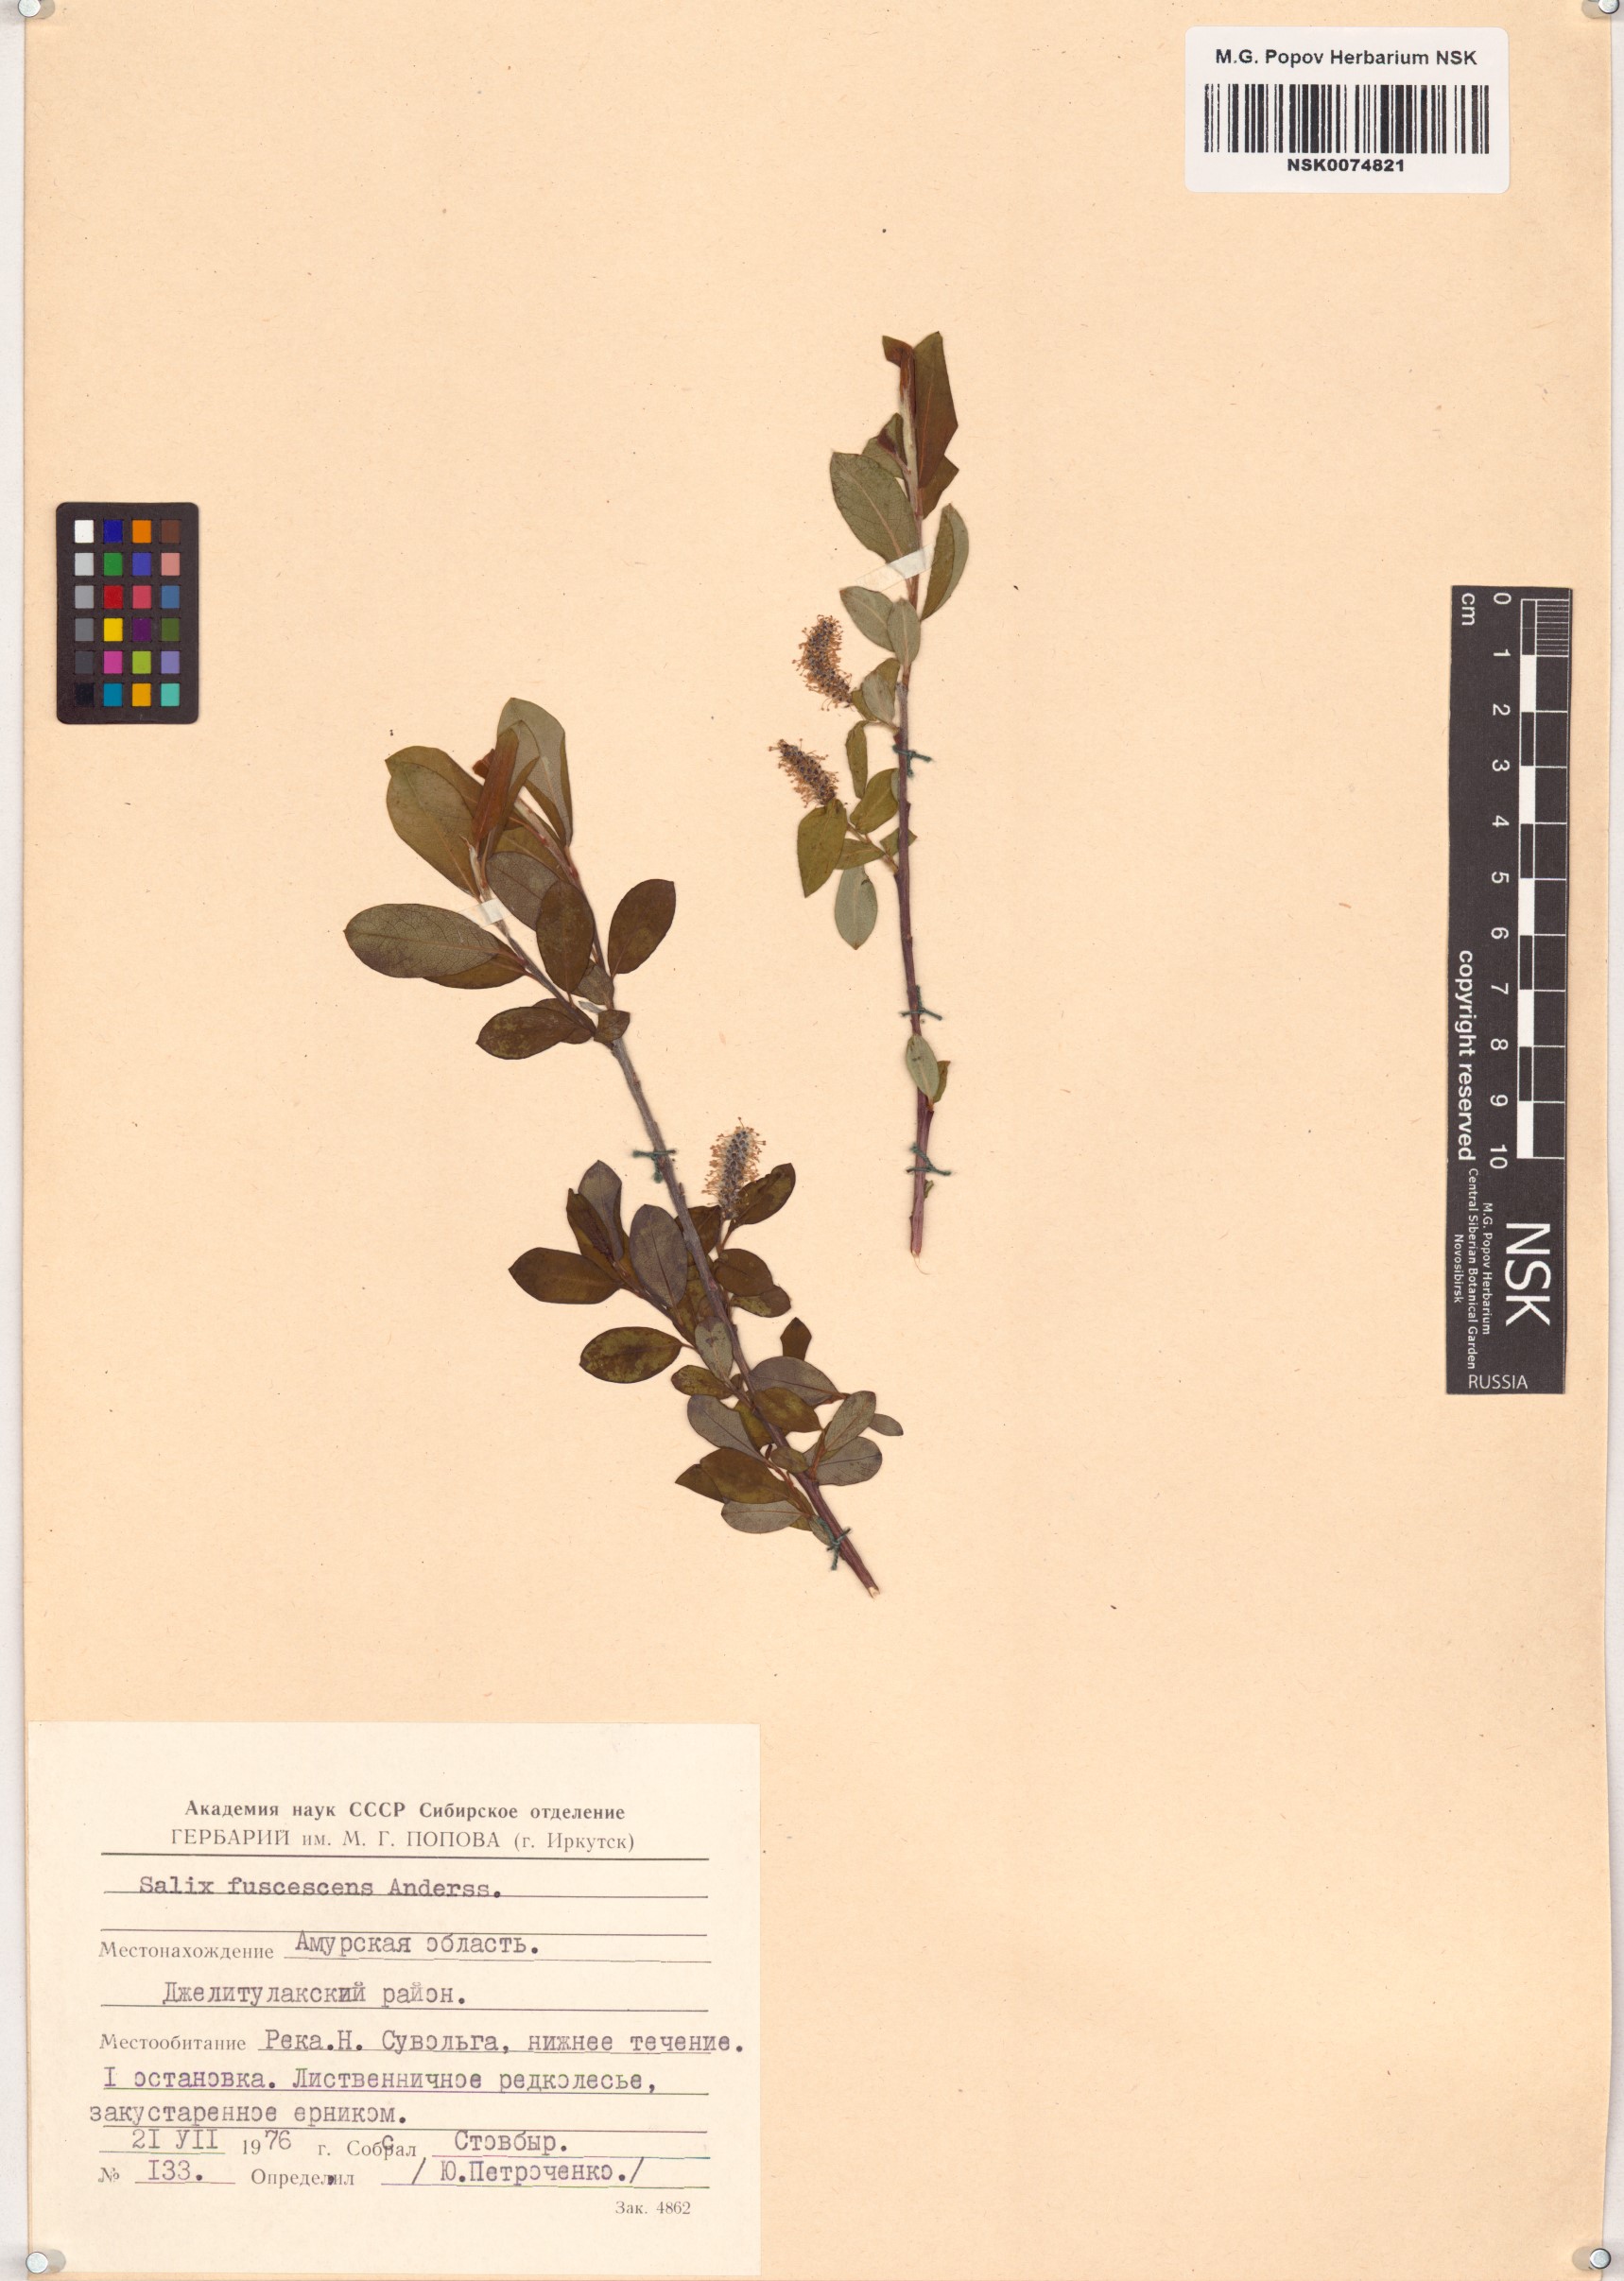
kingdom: Plantae
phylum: Tracheophyta
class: Magnoliopsida
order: Malpighiales
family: Salicaceae
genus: Salix
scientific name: Salix fuscescens
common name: Brownish willow
